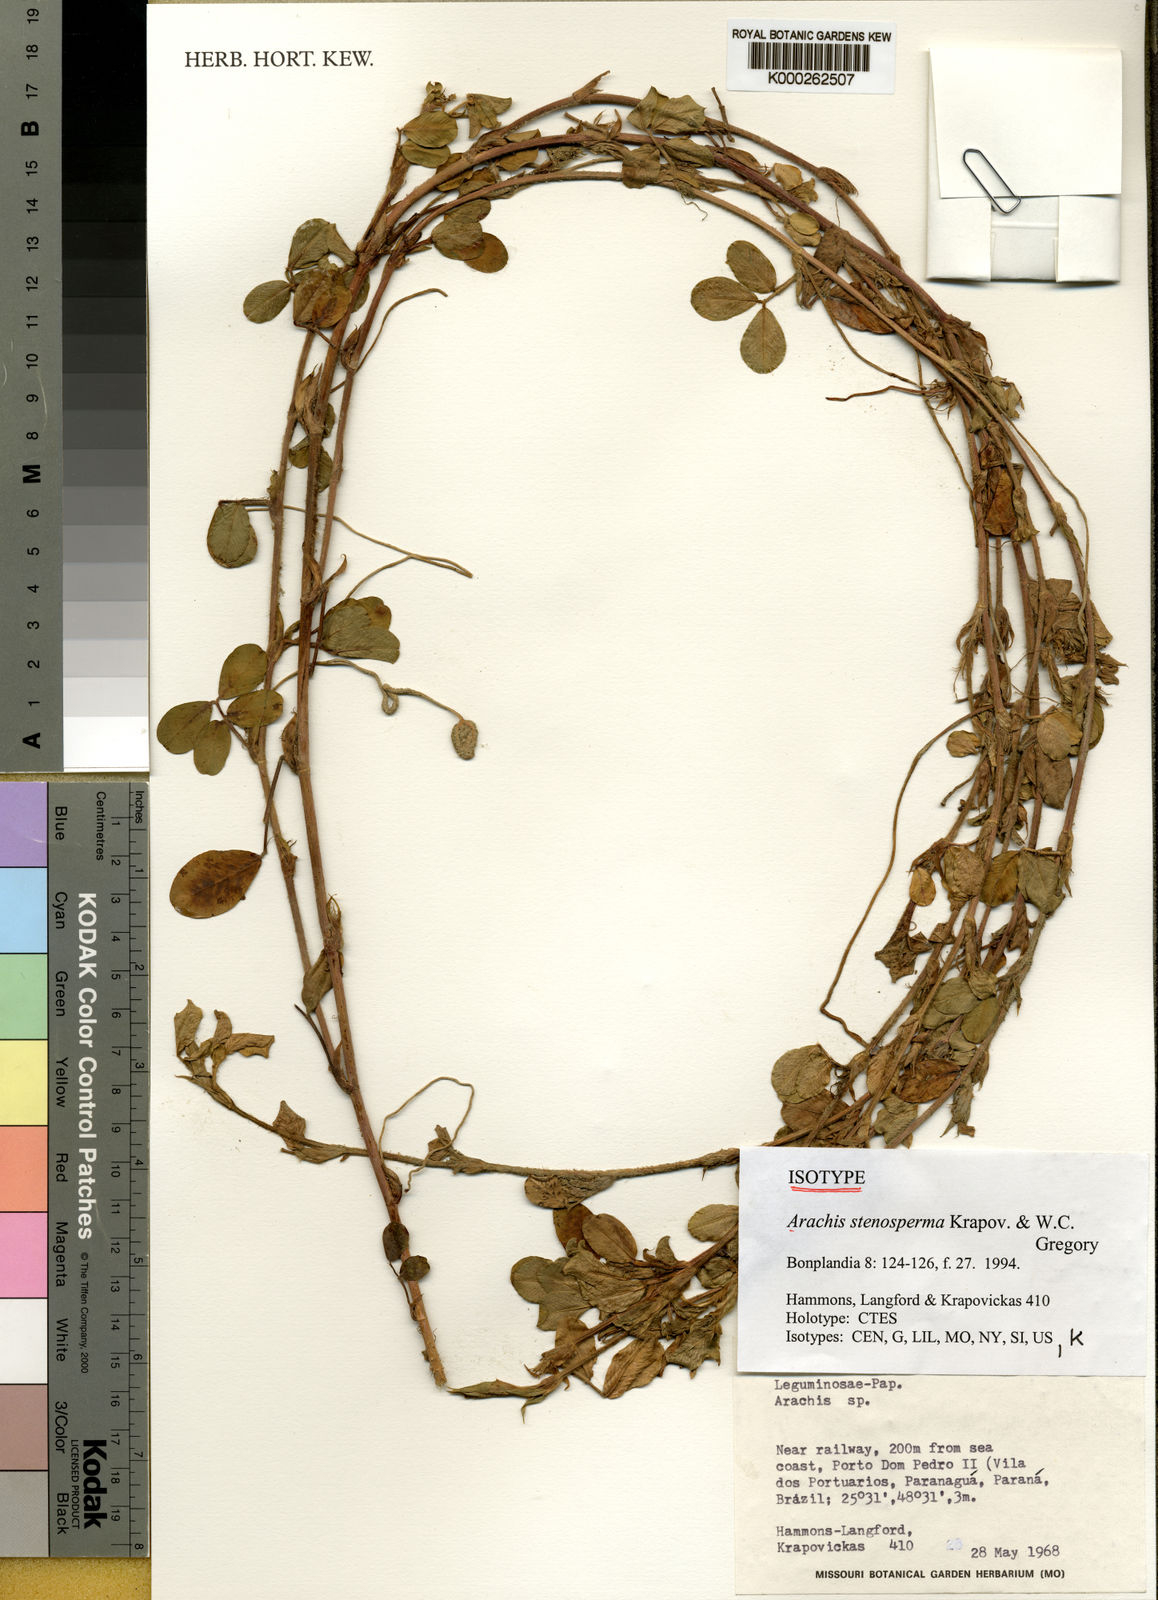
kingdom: Plantae
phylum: Tracheophyta
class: Magnoliopsida
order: Fabales
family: Fabaceae
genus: Arachis
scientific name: Arachis stenosperma
